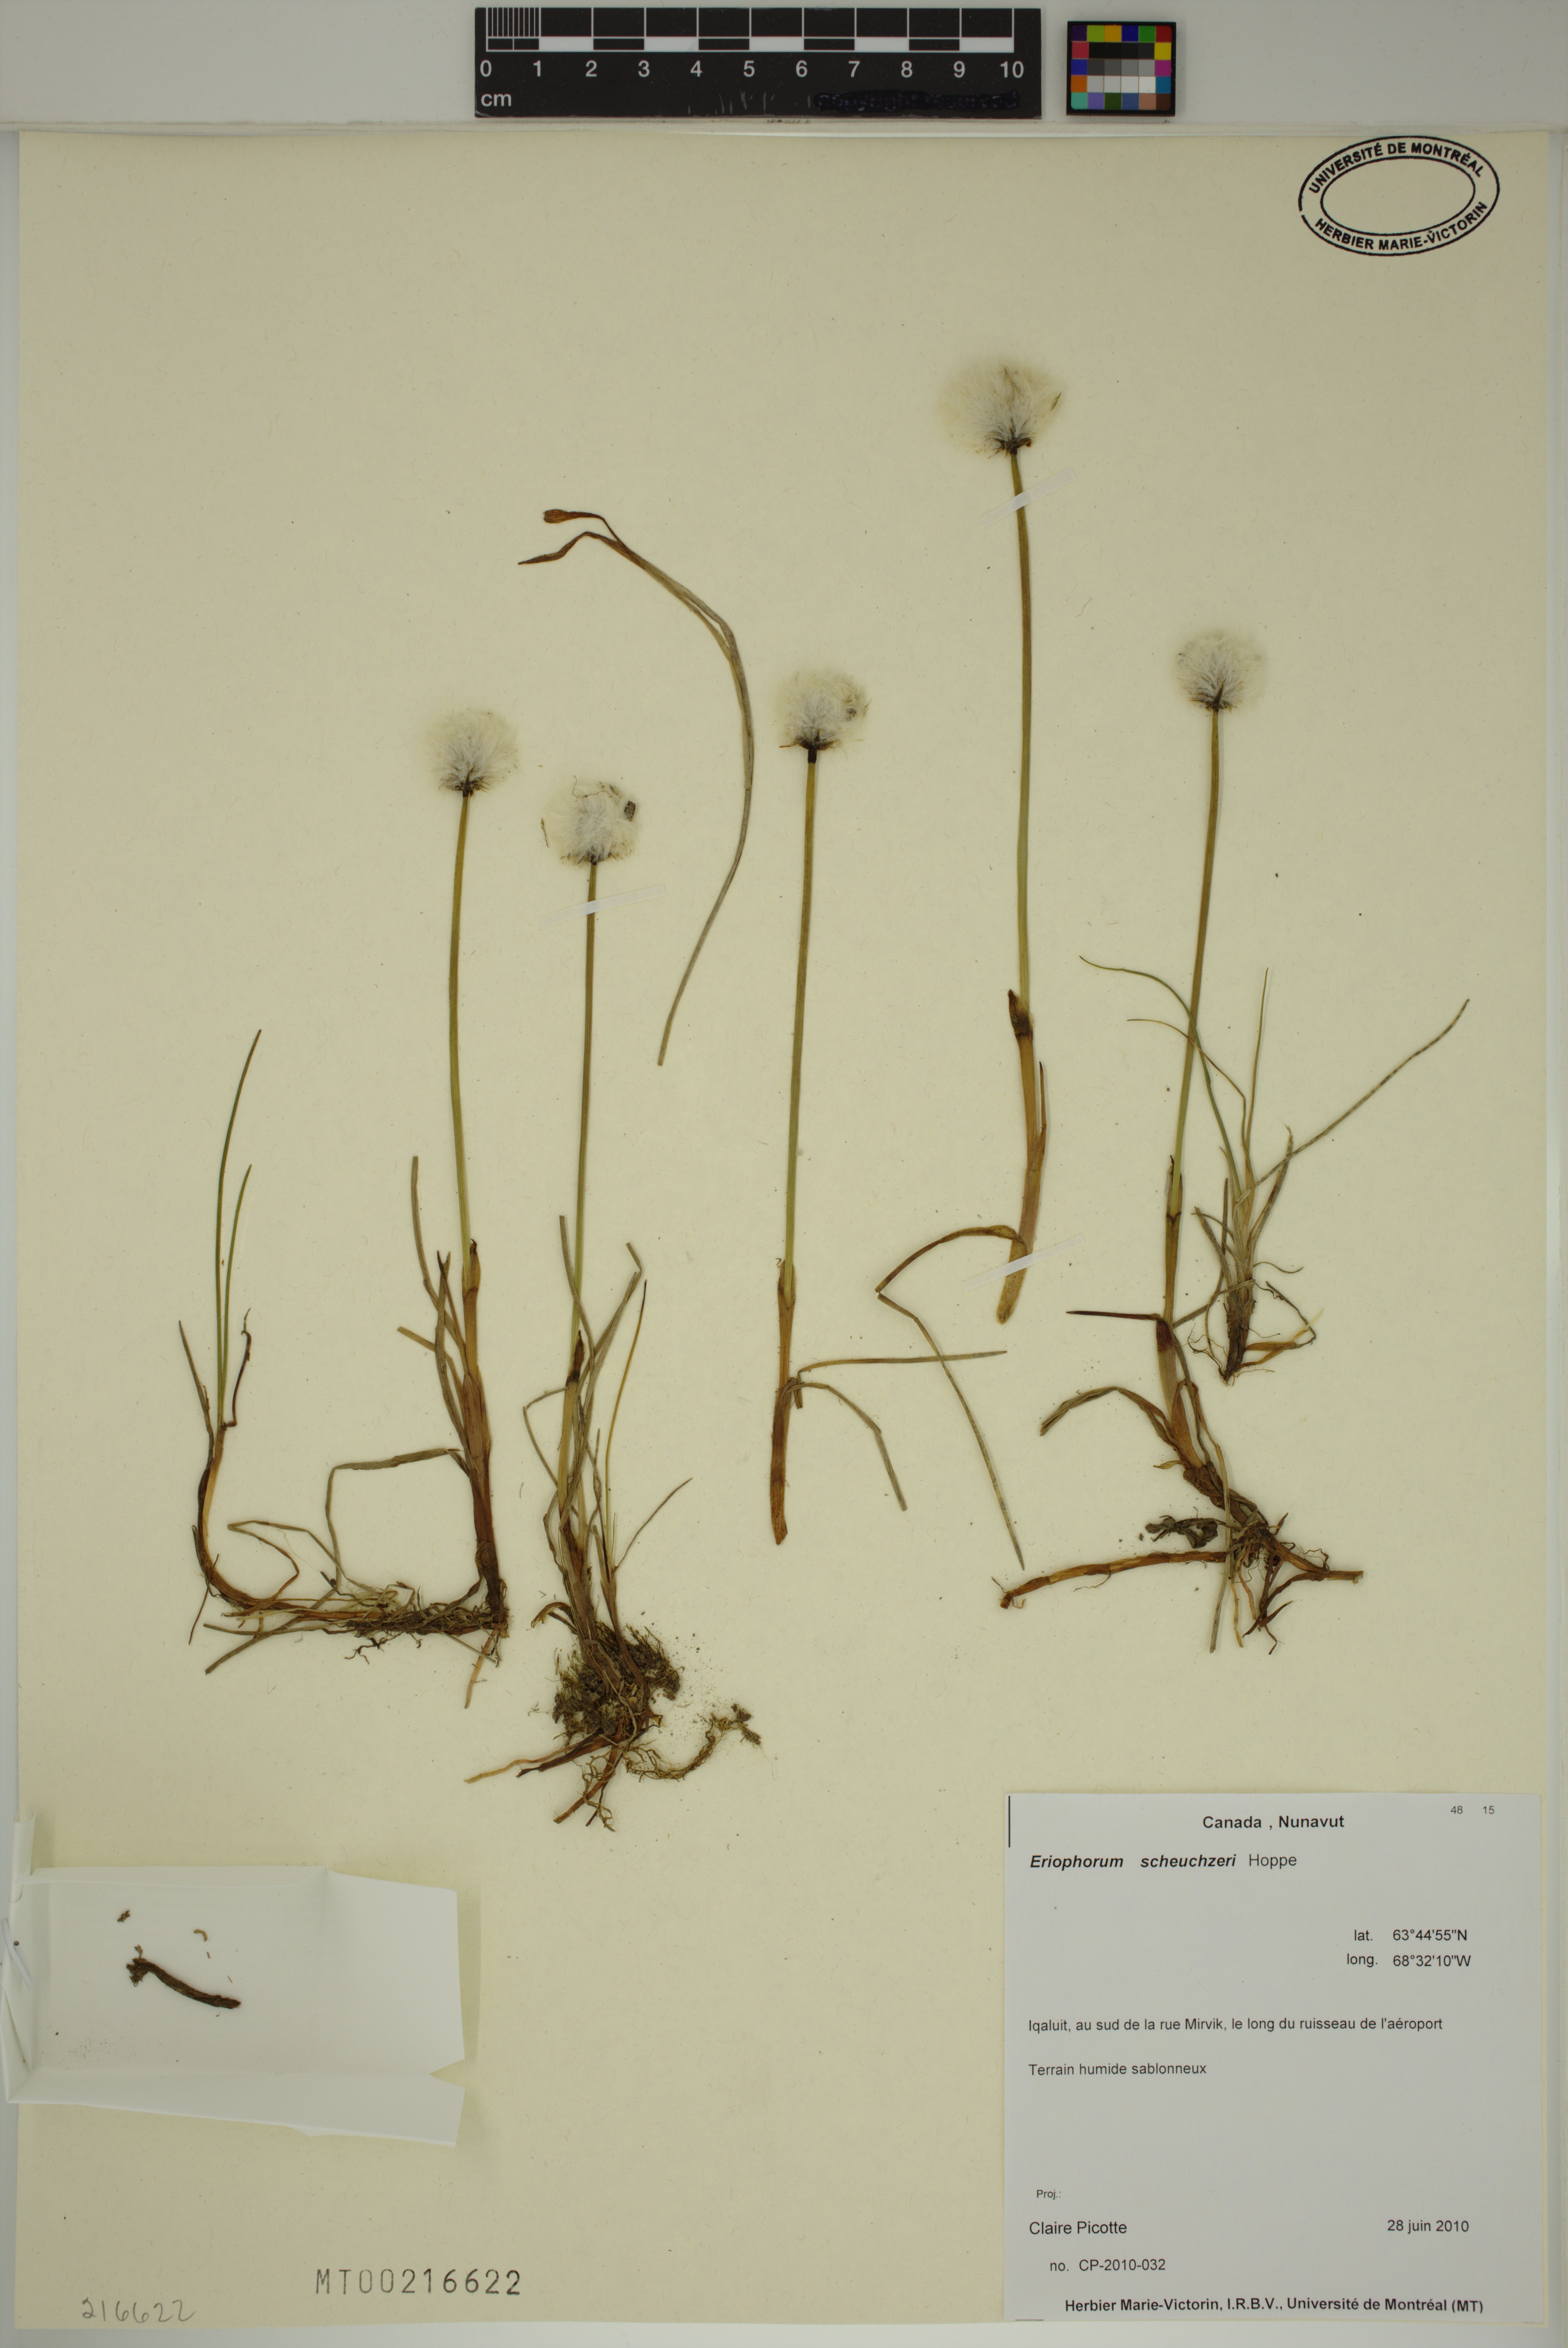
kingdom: Plantae
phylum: Tracheophyta
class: Liliopsida
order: Poales
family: Cyperaceae
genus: Eriophorum
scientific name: Eriophorum scheuchzeri
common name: Scheuchzer's cottongrass
